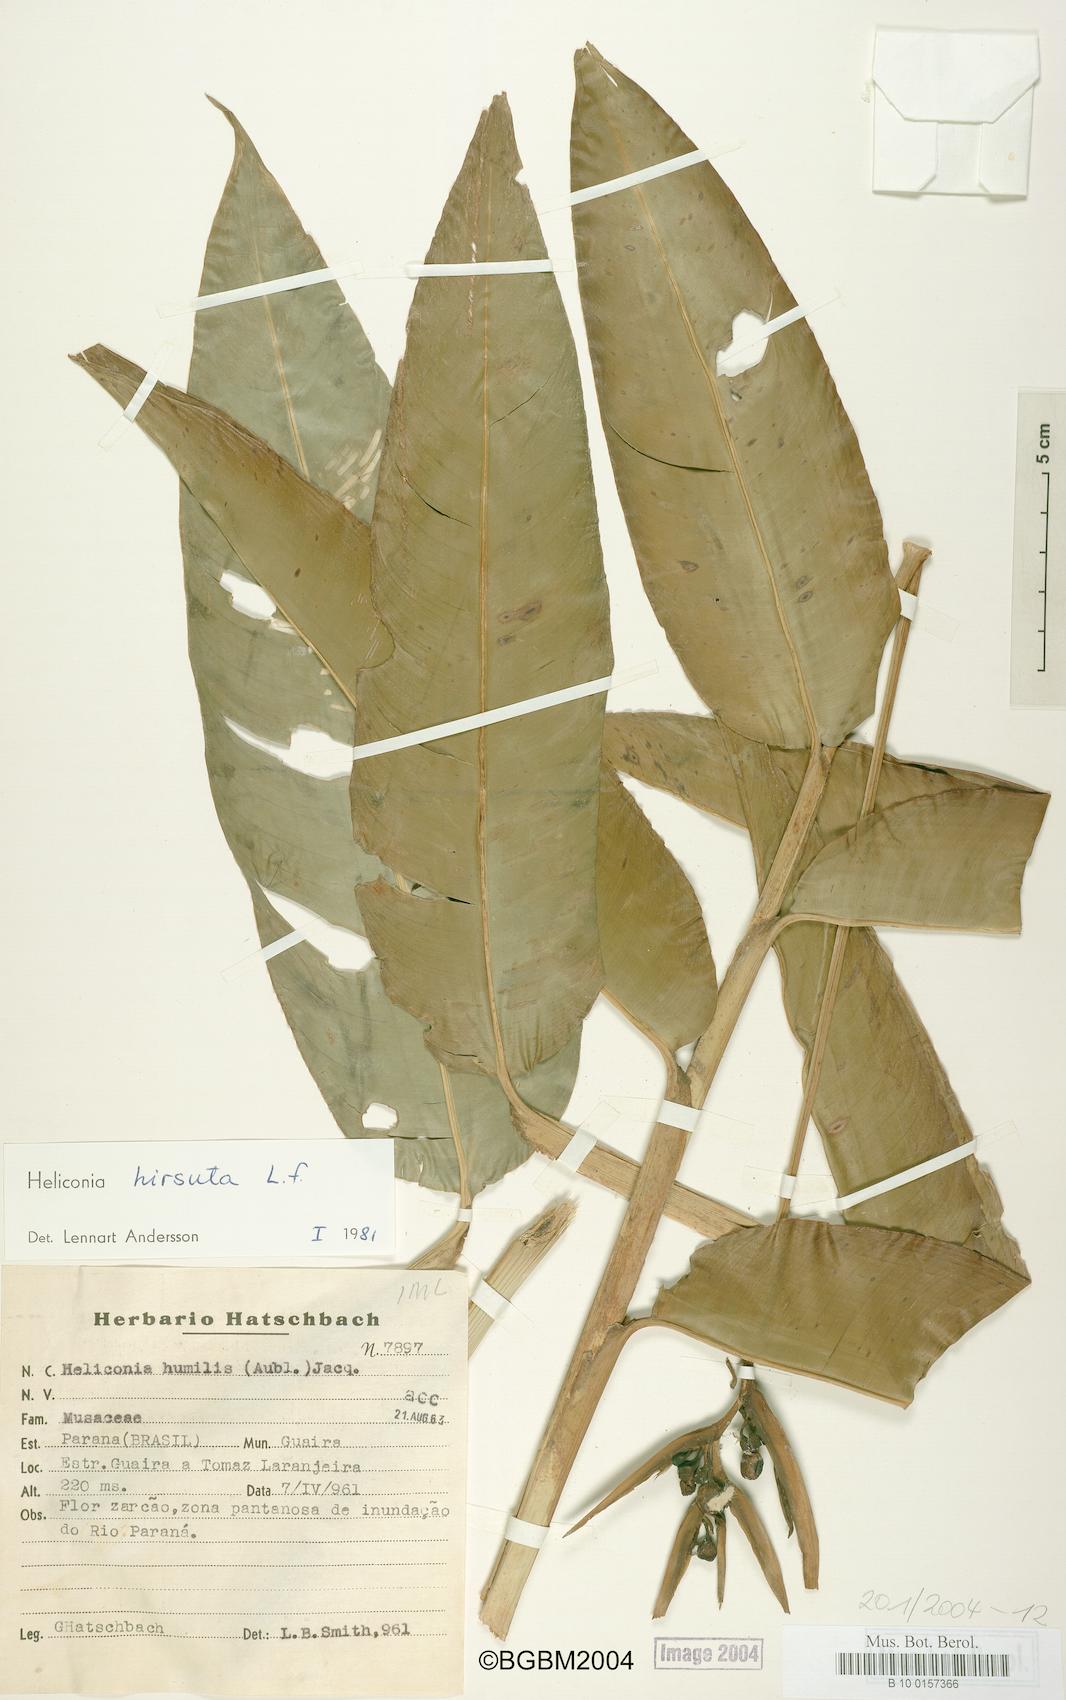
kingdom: Plantae
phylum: Tracheophyta
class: Liliopsida
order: Zingiberales
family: Heliconiaceae
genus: Heliconia
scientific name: Heliconia hirsuta
